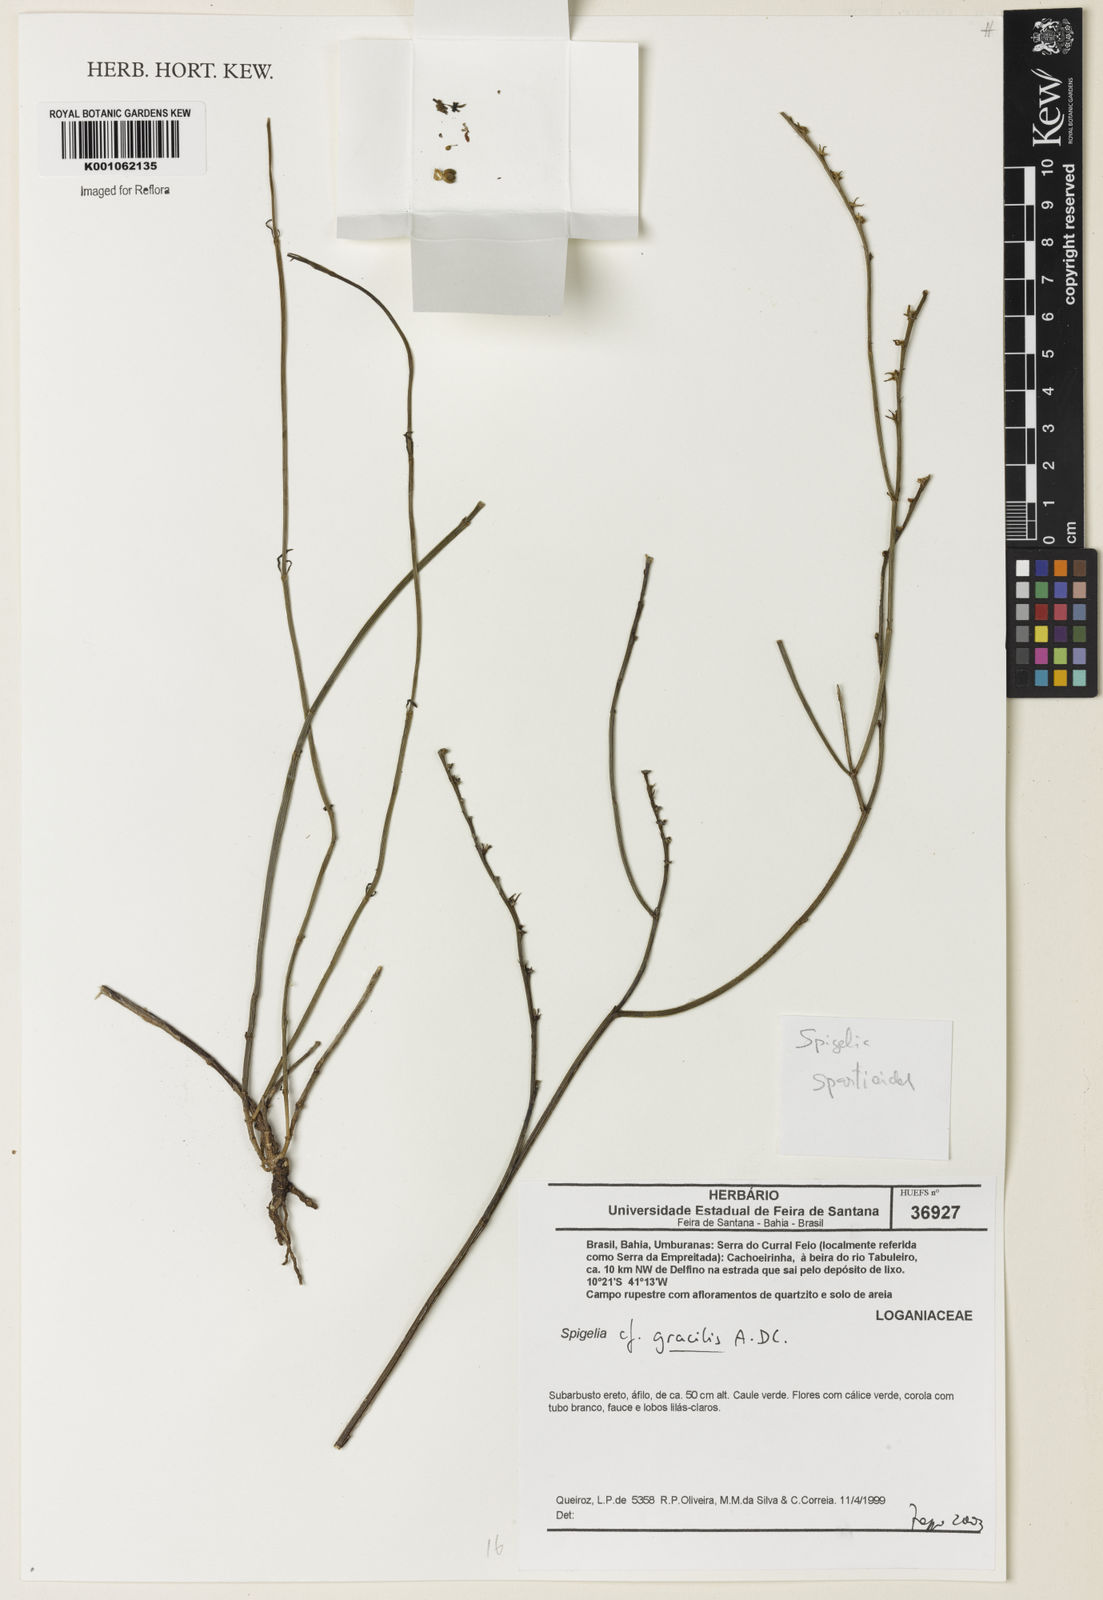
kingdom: Plantae
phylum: Tracheophyta
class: Magnoliopsida
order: Gentianales
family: Loganiaceae
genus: Spigelia
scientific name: Spigelia
